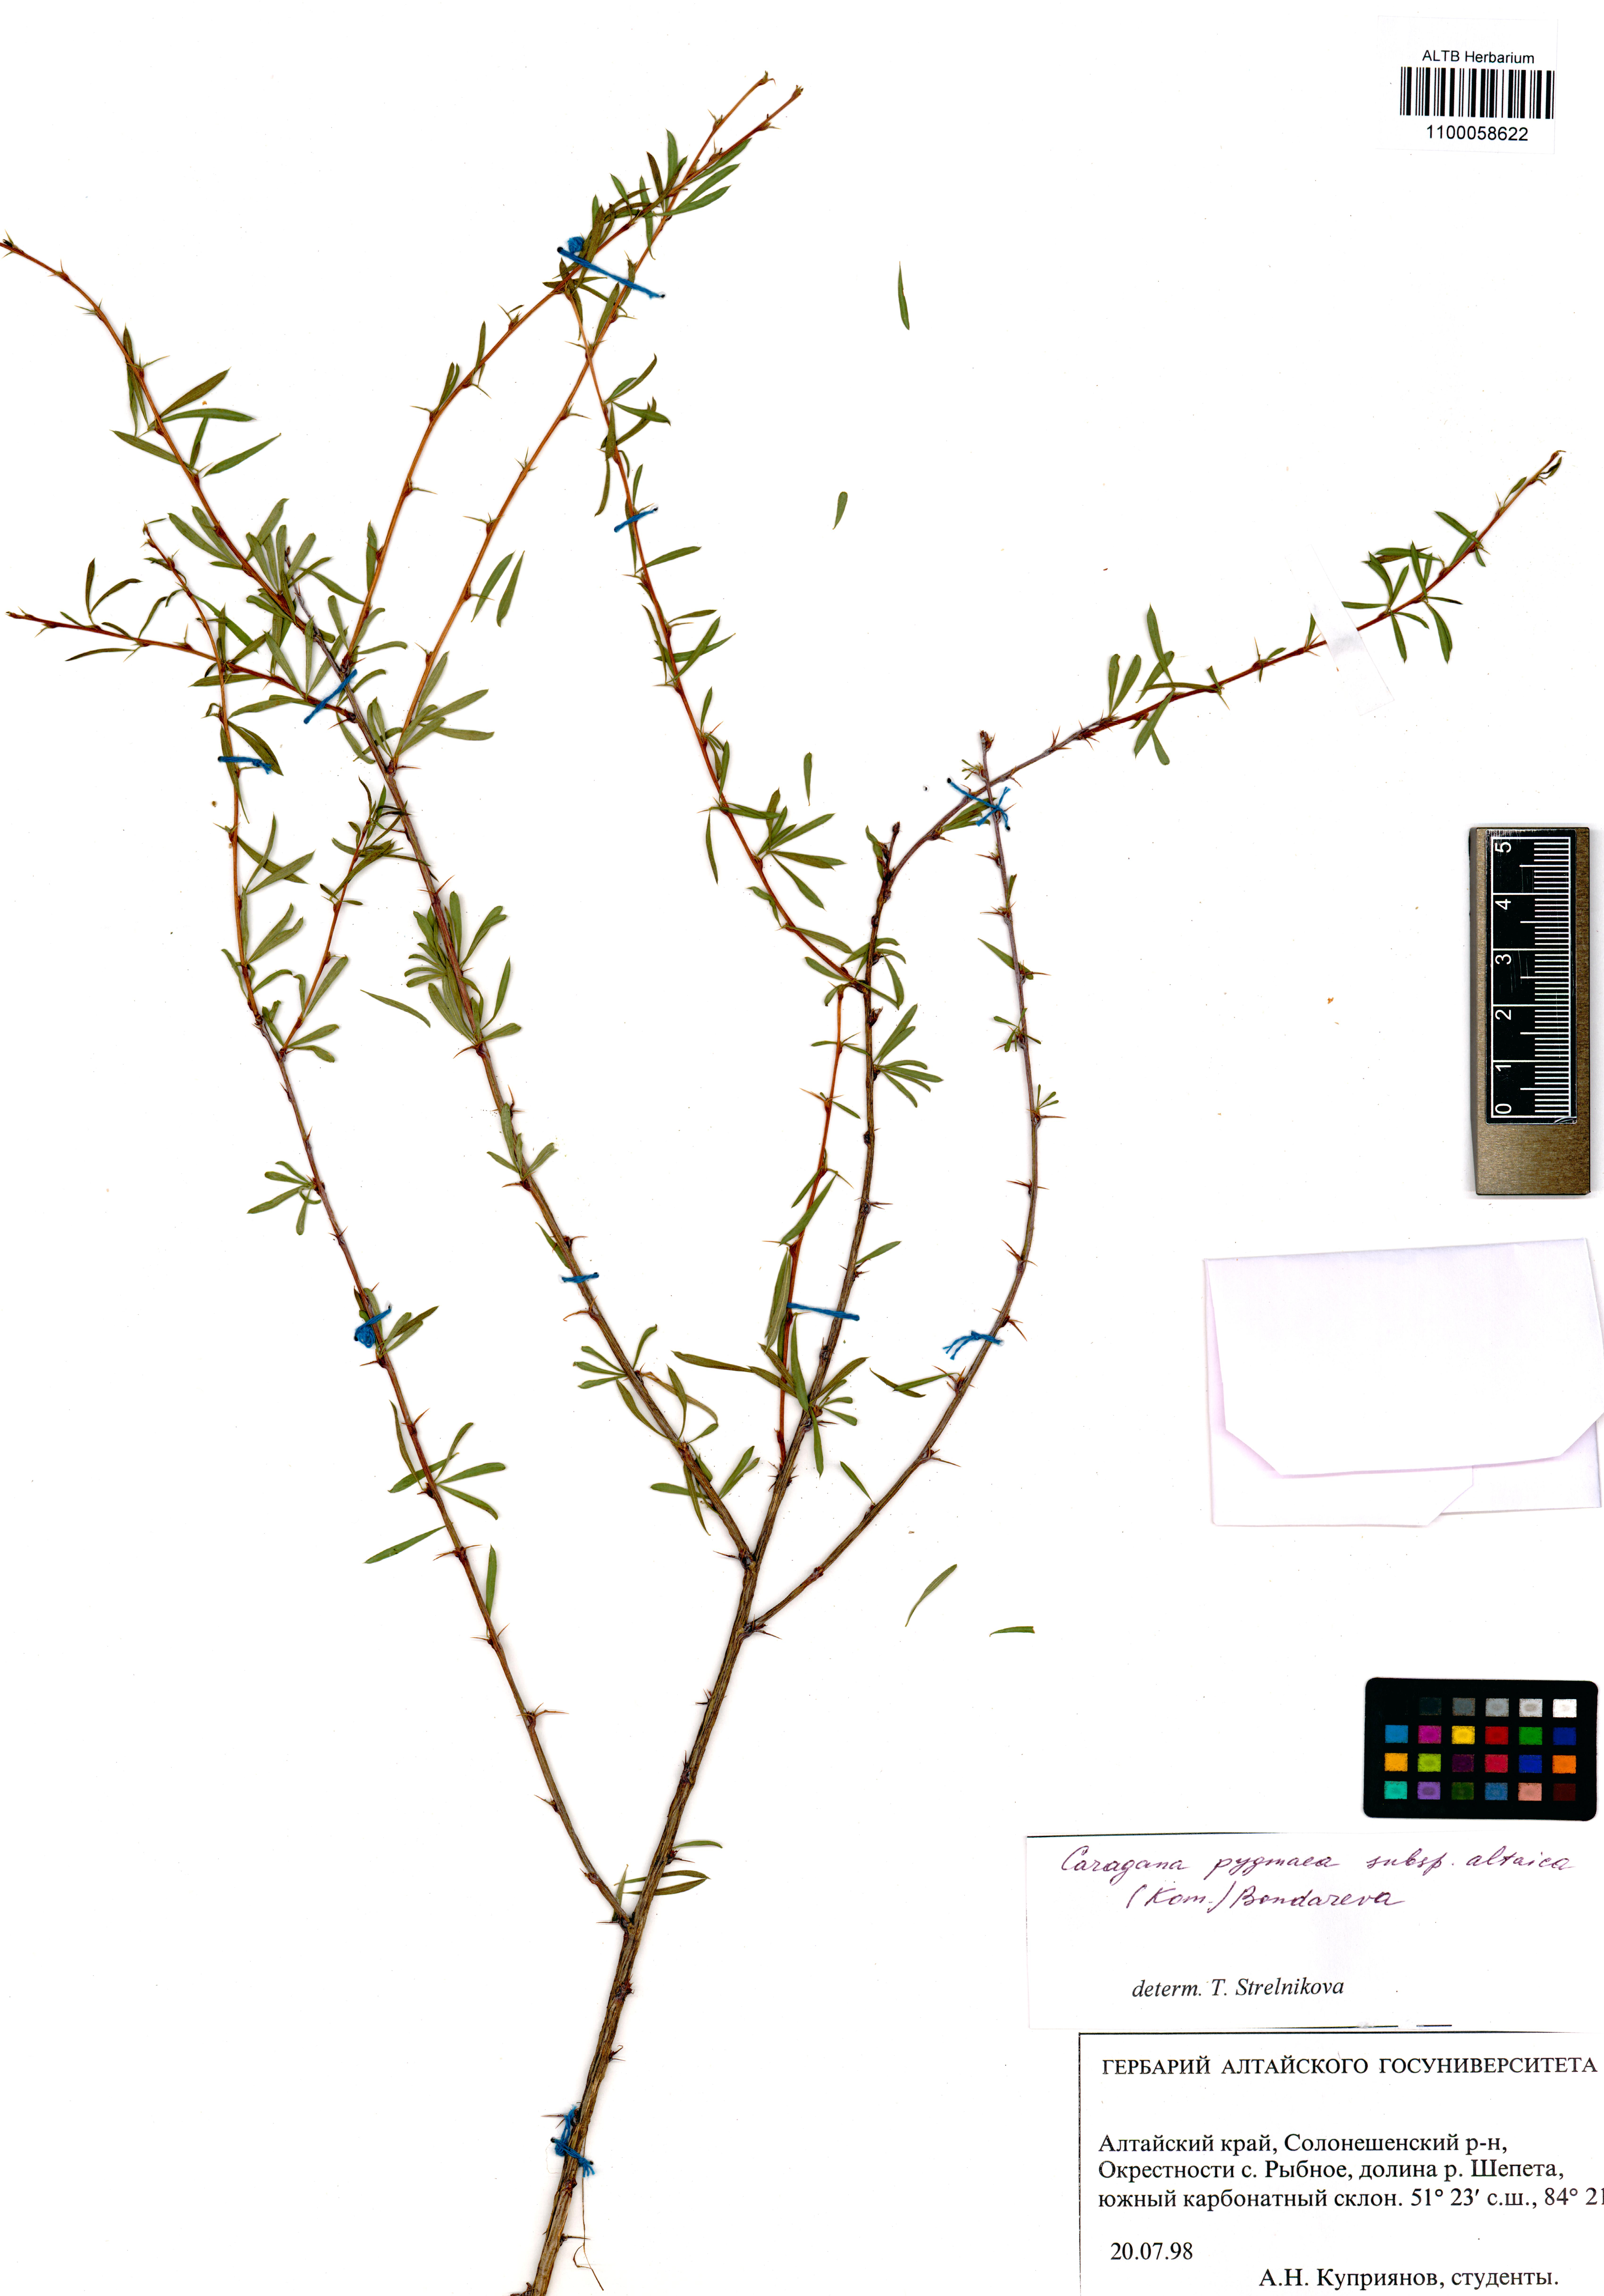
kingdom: Plantae
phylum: Tracheophyta
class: Magnoliopsida
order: Fabales
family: Fabaceae
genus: Caragana
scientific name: Caragana pygmaea
